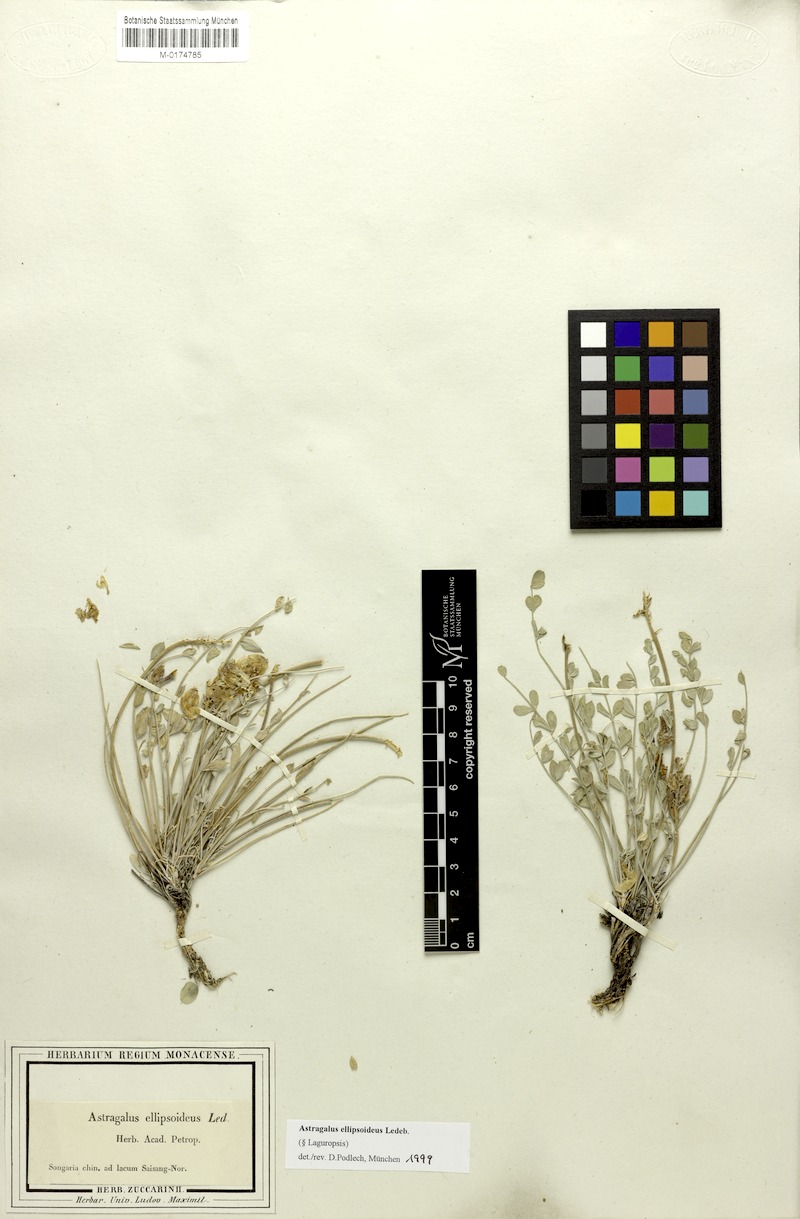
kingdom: Plantae
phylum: Tracheophyta
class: Magnoliopsida
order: Fabales
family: Fabaceae
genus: Astragalus
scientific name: Astragalus ellipsoideus
